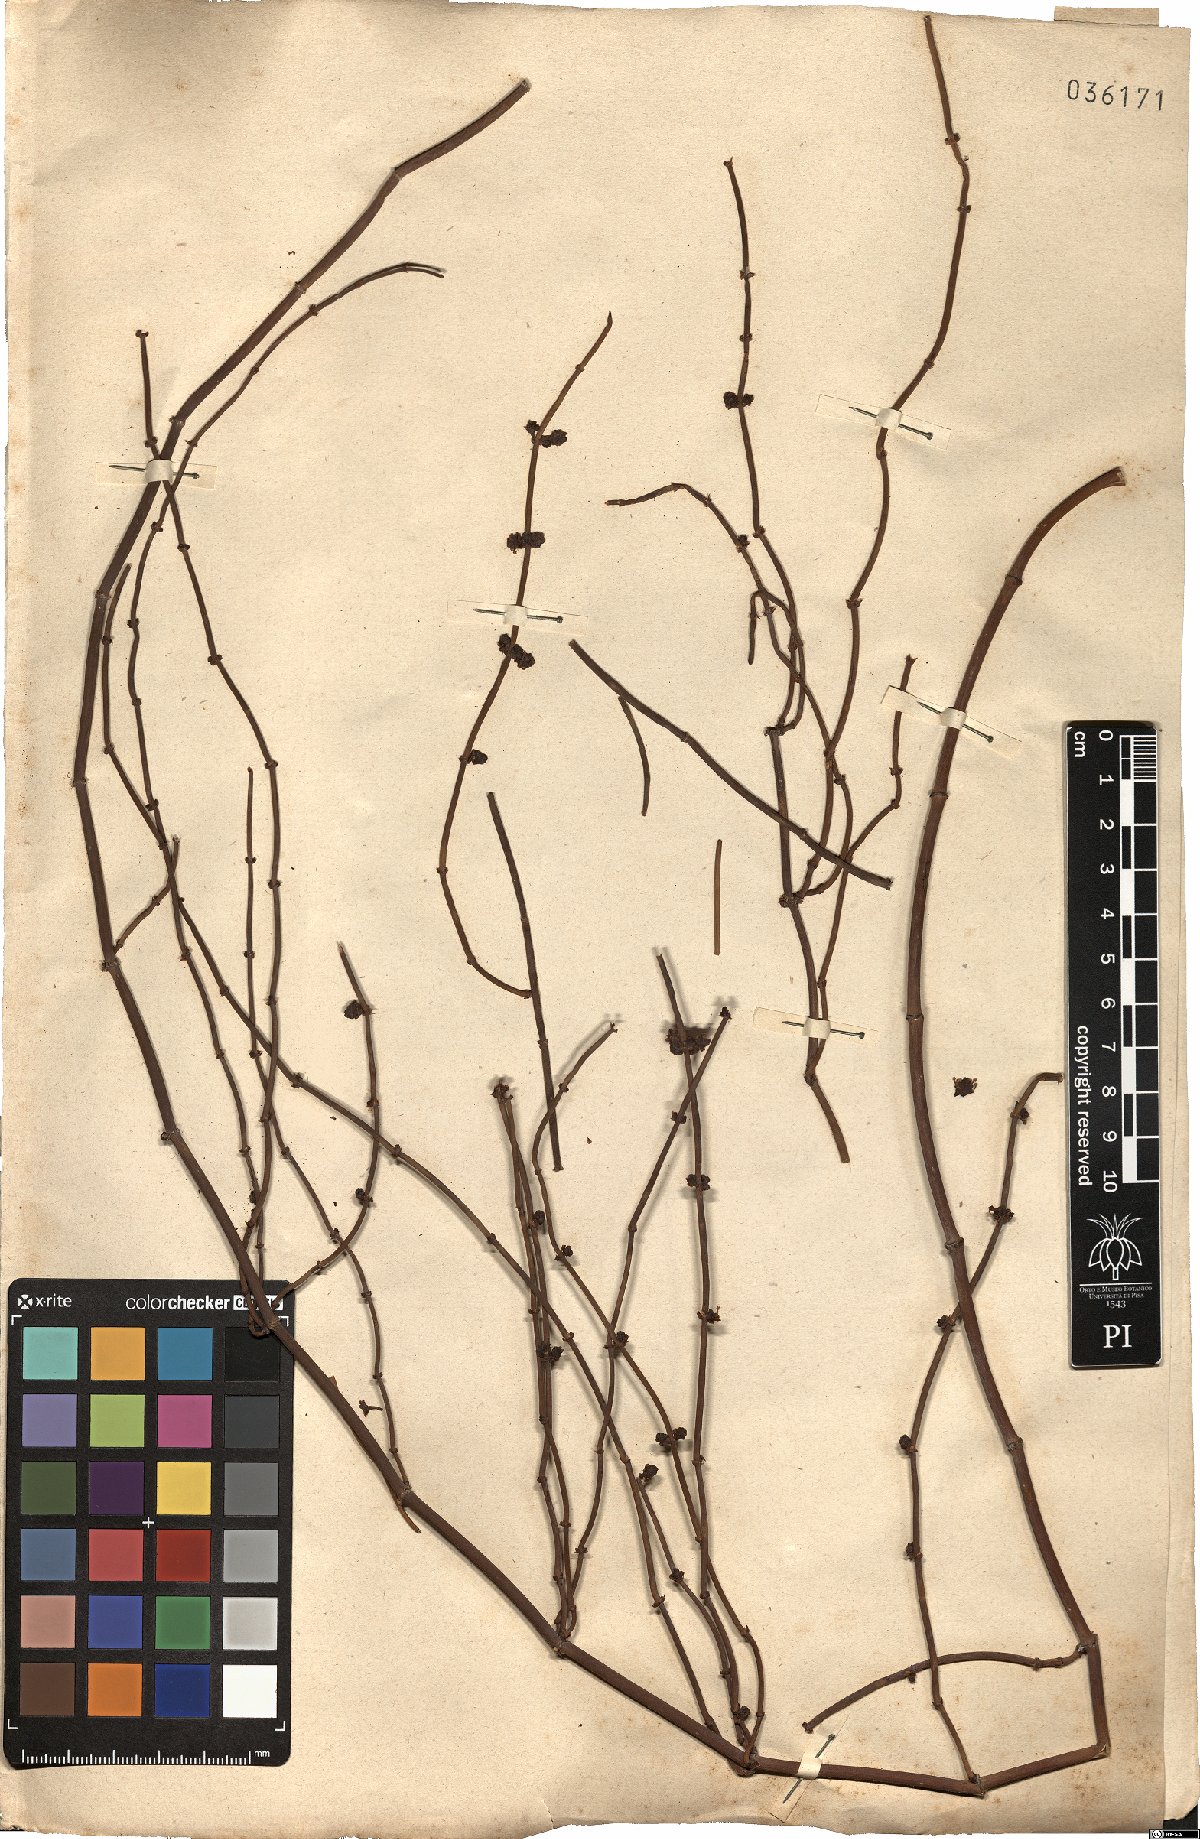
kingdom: Plantae
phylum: Tracheophyta
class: Gnetopsida
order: Ephedrales
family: Ephedraceae
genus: Ephedra
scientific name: Ephedra
